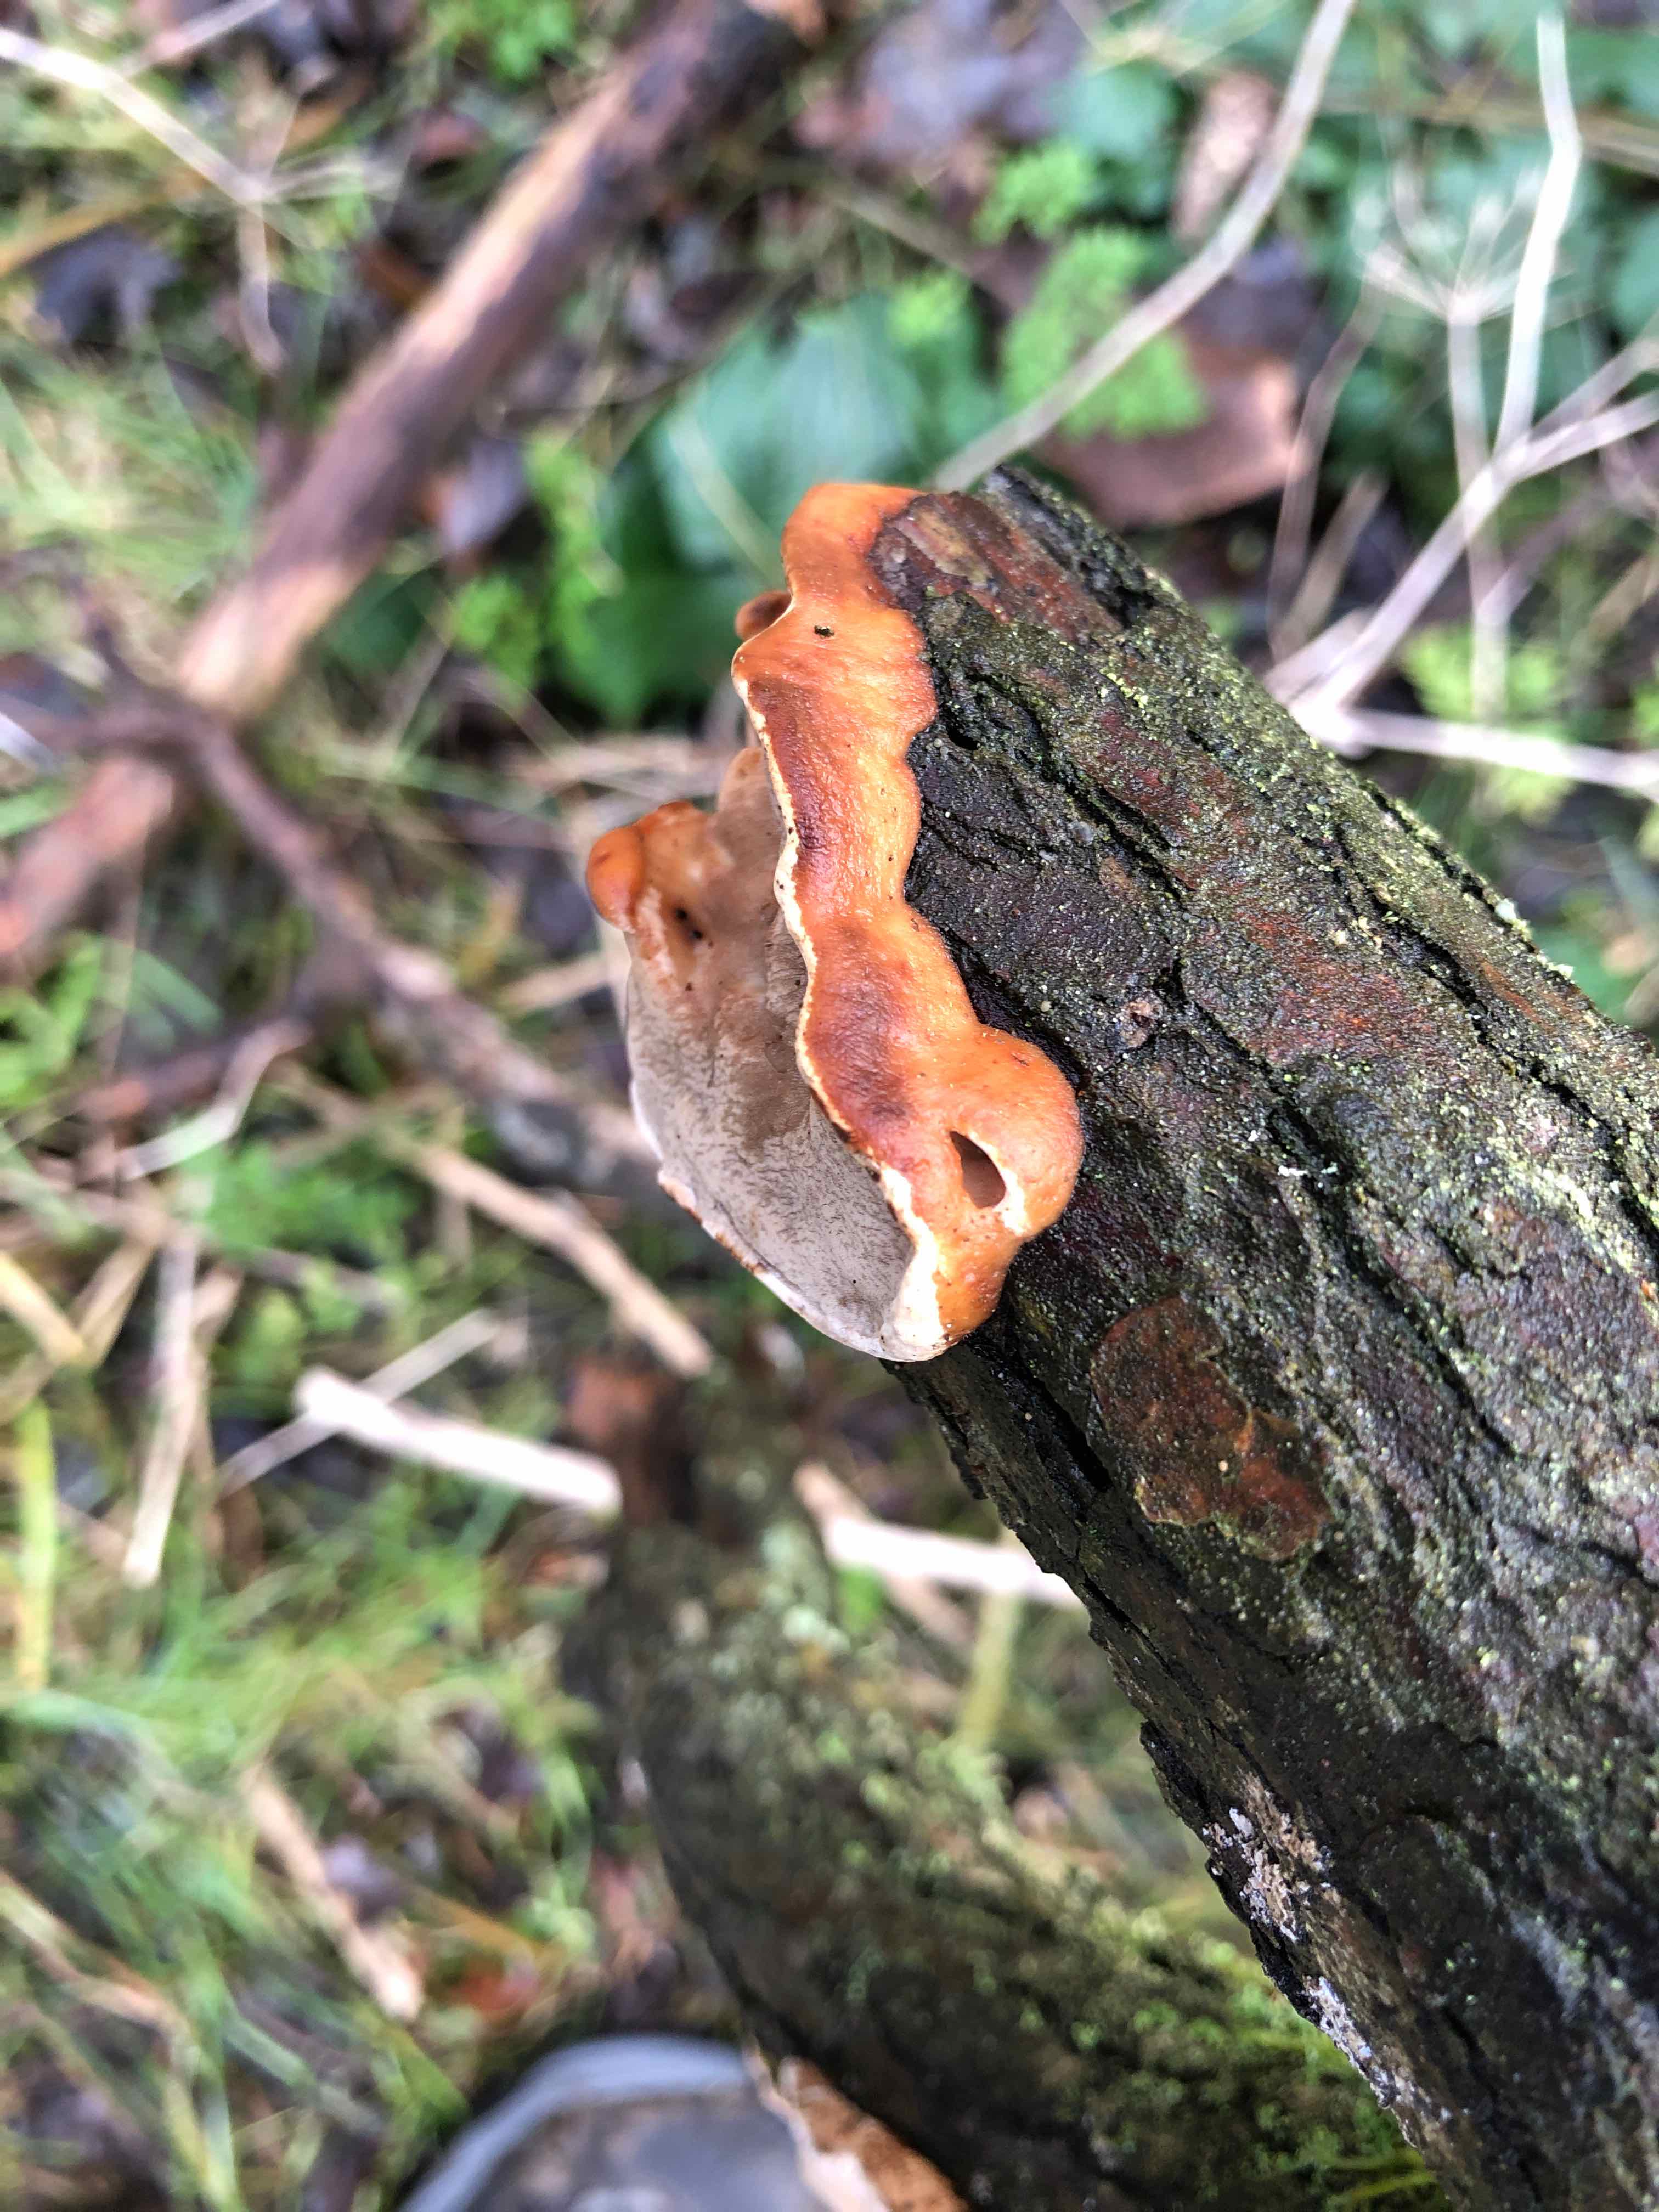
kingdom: Fungi
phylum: Basidiomycota
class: Agaricomycetes
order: Polyporales
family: Incrustoporiaceae
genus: Skeletocutis
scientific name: Skeletocutis nemoralis
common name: stor krystalporesvamp
